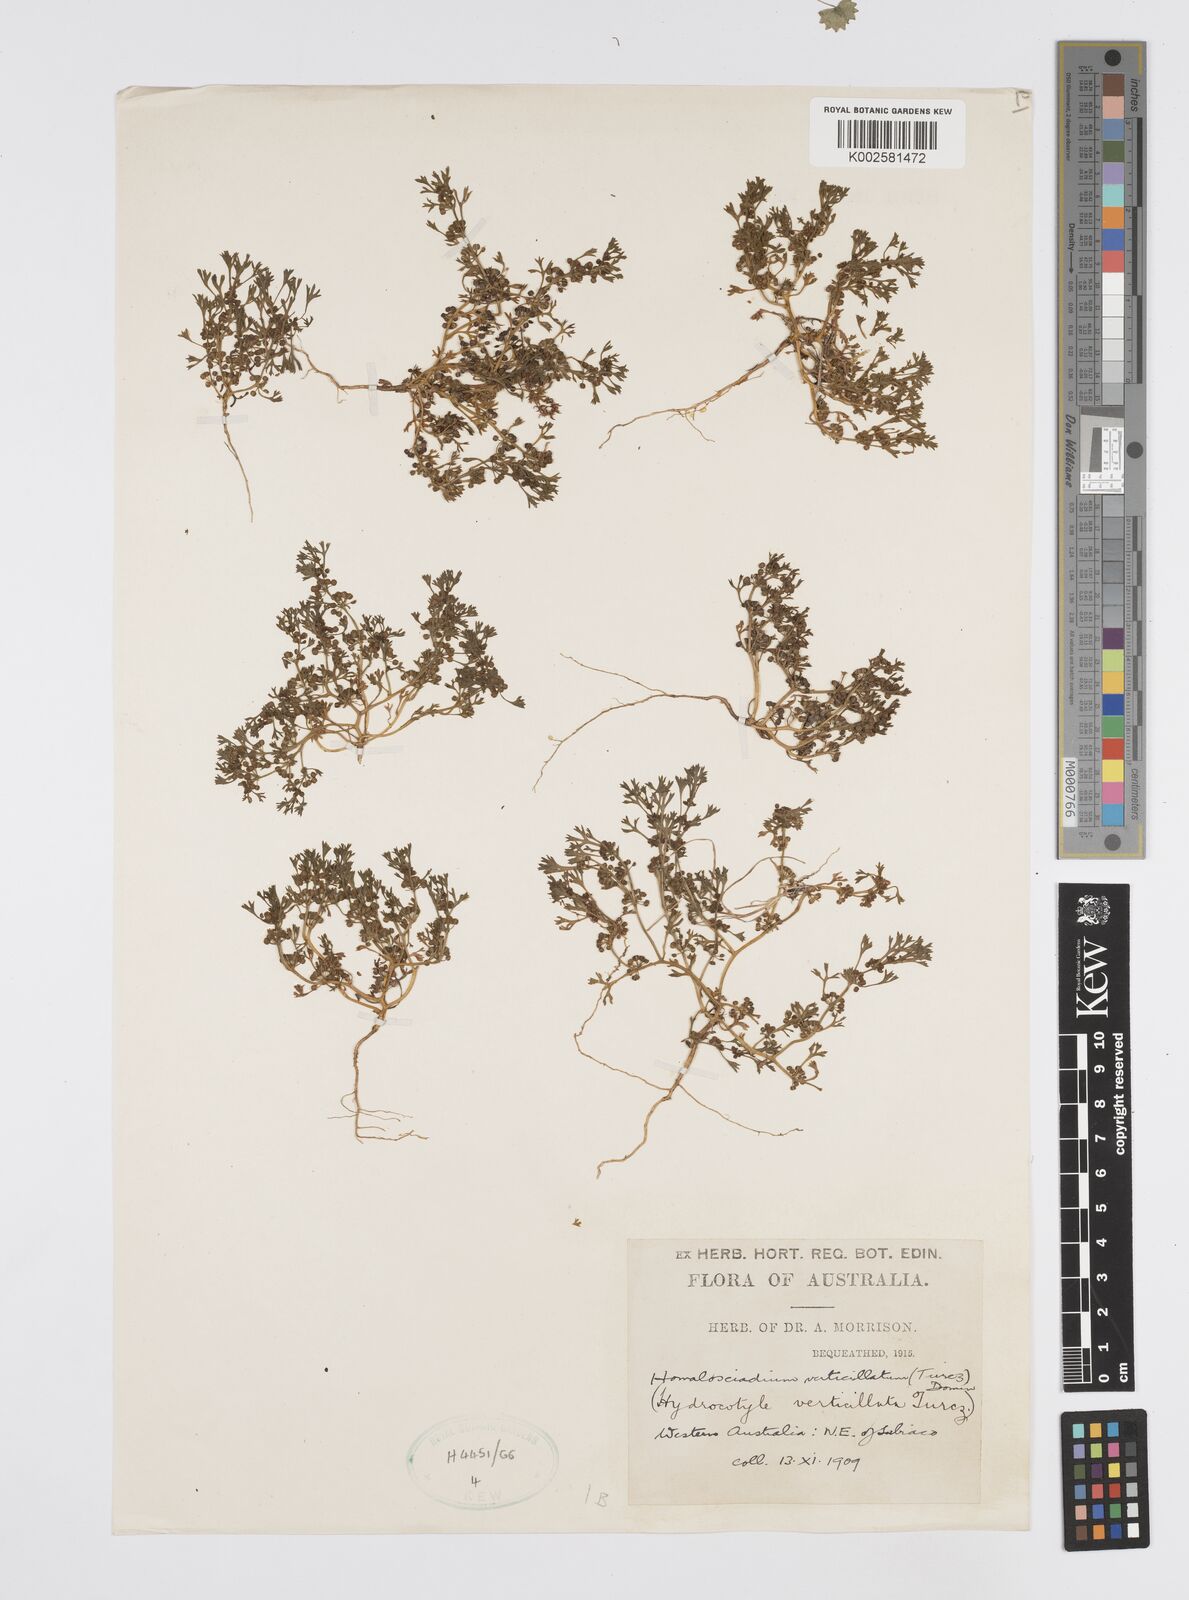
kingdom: Plantae
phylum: Tracheophyta
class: Magnoliopsida
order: Apiales
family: Apiaceae
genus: Homalosciadium
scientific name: Homalosciadium homalocarpum
